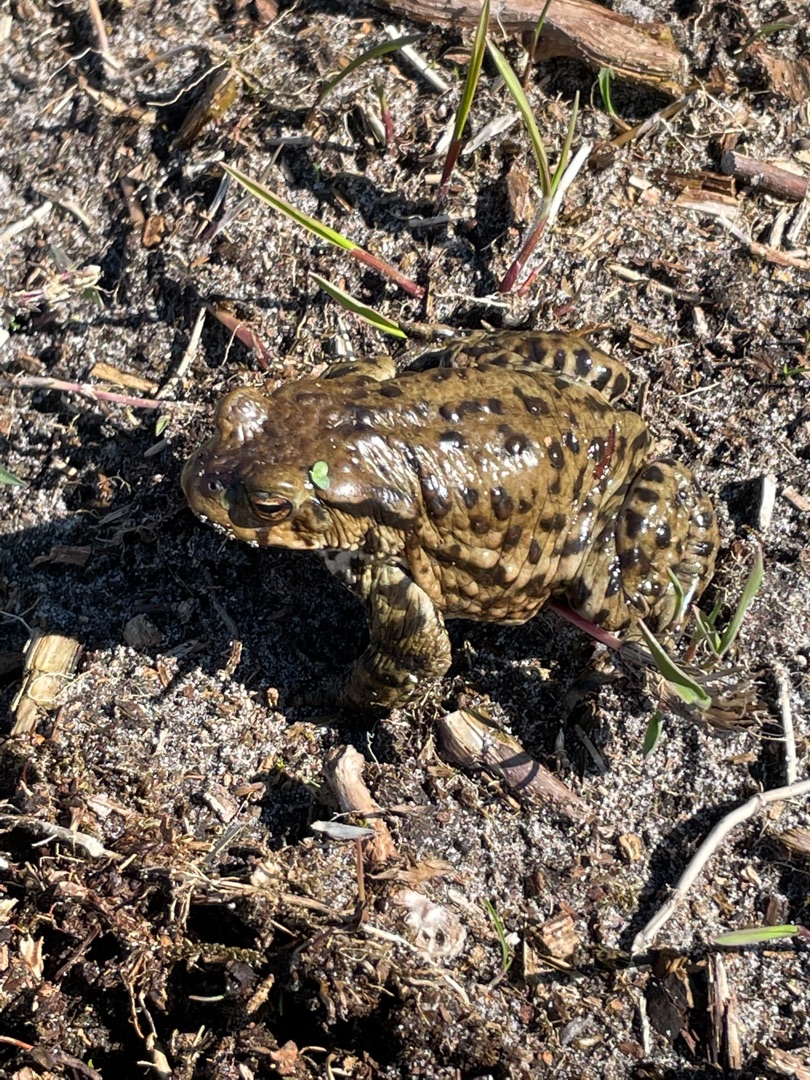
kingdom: Animalia
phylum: Chordata
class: Amphibia
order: Anura
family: Bufonidae
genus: Bufo
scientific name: Bufo bufo
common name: Skrubtudse
